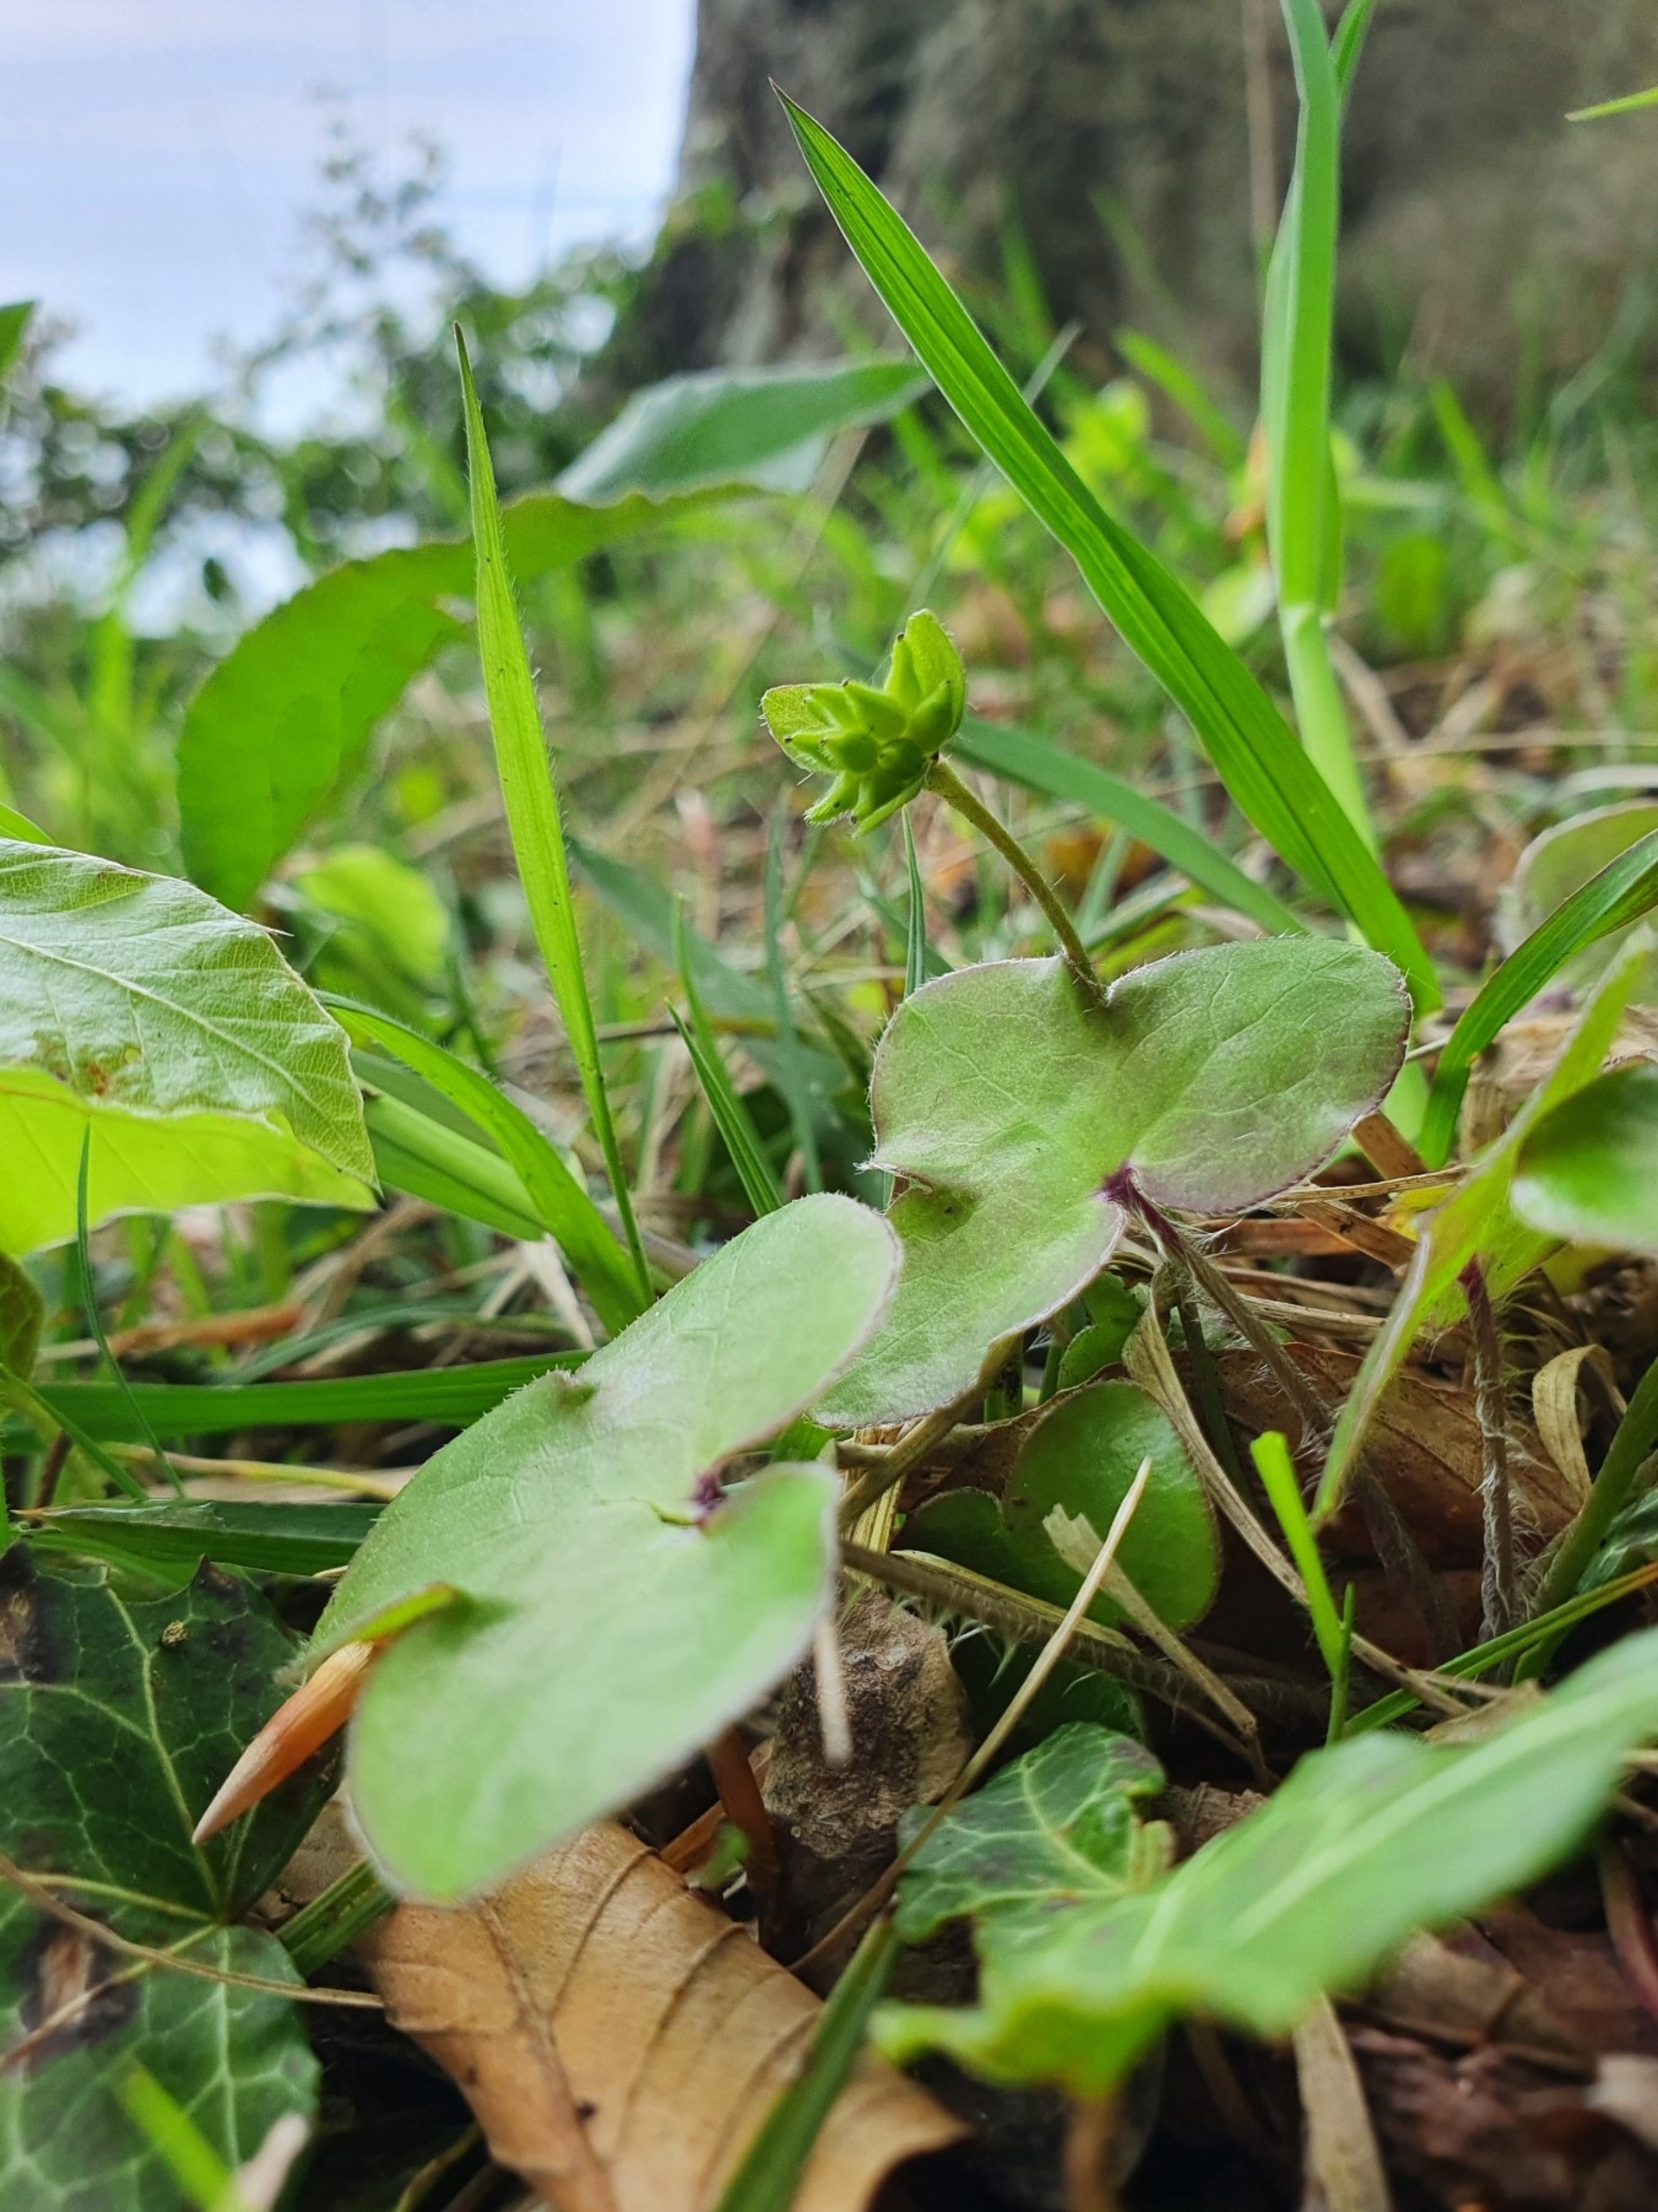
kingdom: Plantae
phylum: Tracheophyta
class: Magnoliopsida
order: Ranunculales
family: Ranunculaceae
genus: Hepatica
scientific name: Hepatica nobilis
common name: Blå anemone
